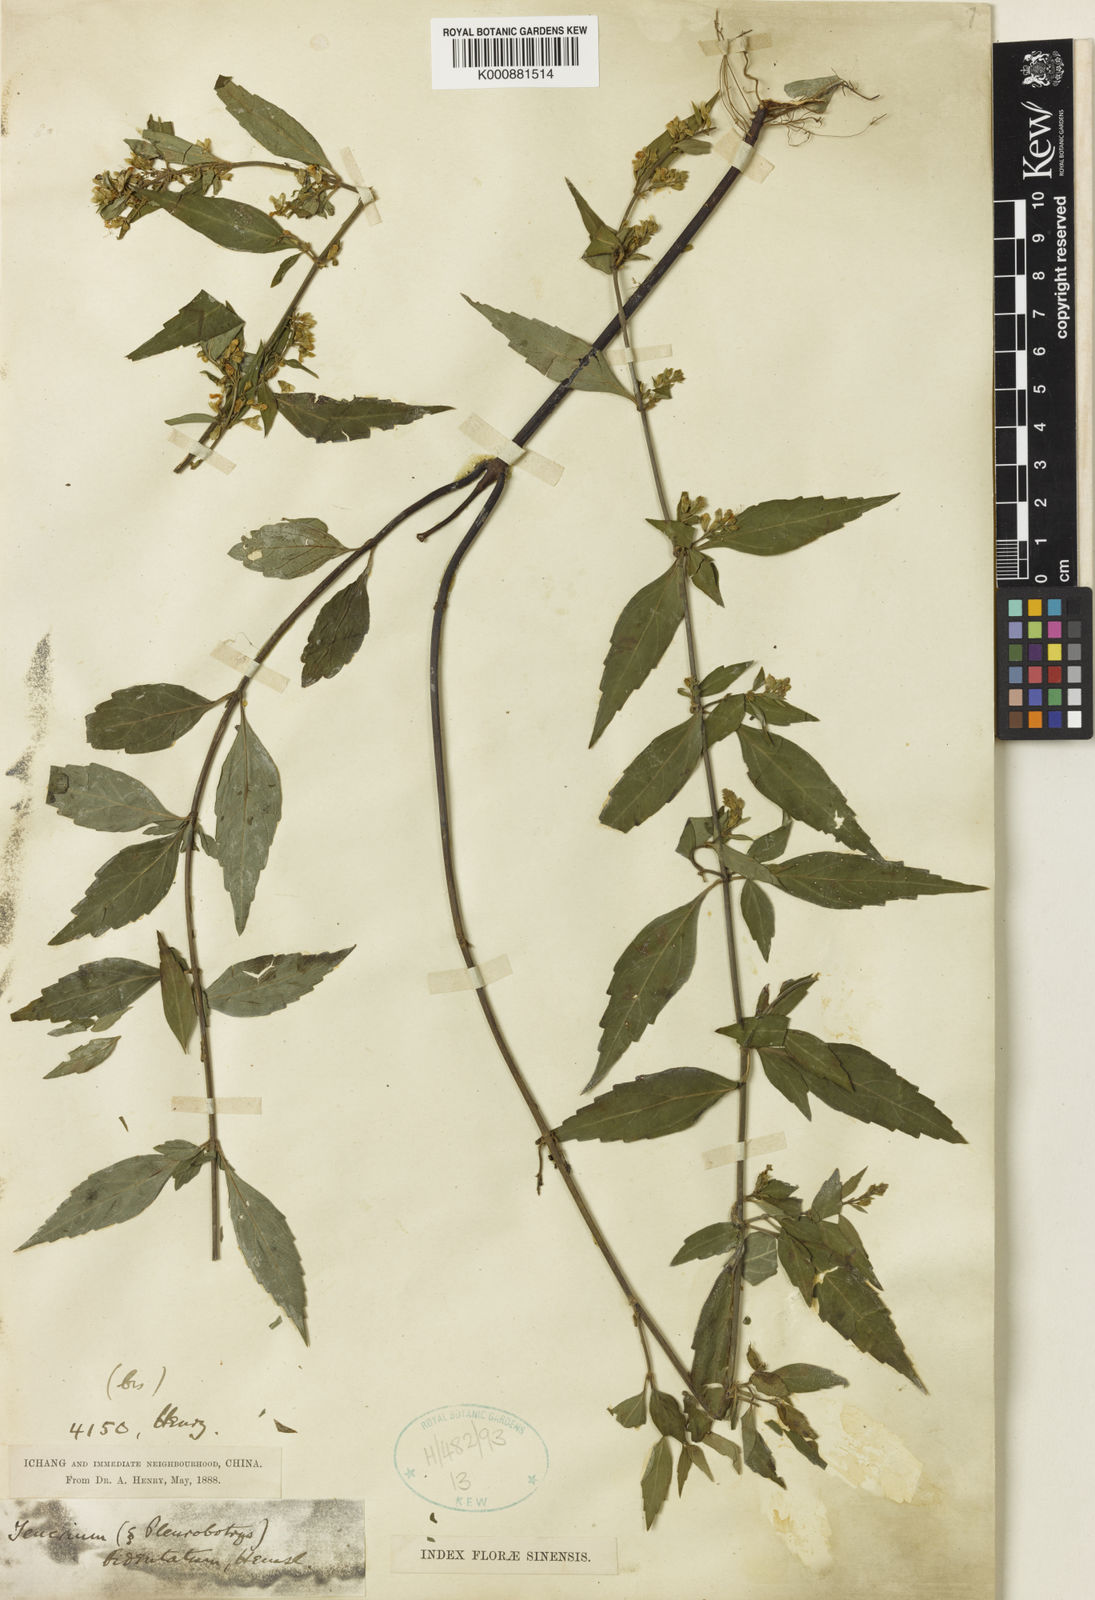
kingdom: Plantae
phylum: Tracheophyta
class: Magnoliopsida
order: Lamiales
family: Lamiaceae
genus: Teucrium
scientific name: Teucrium bidentatum
